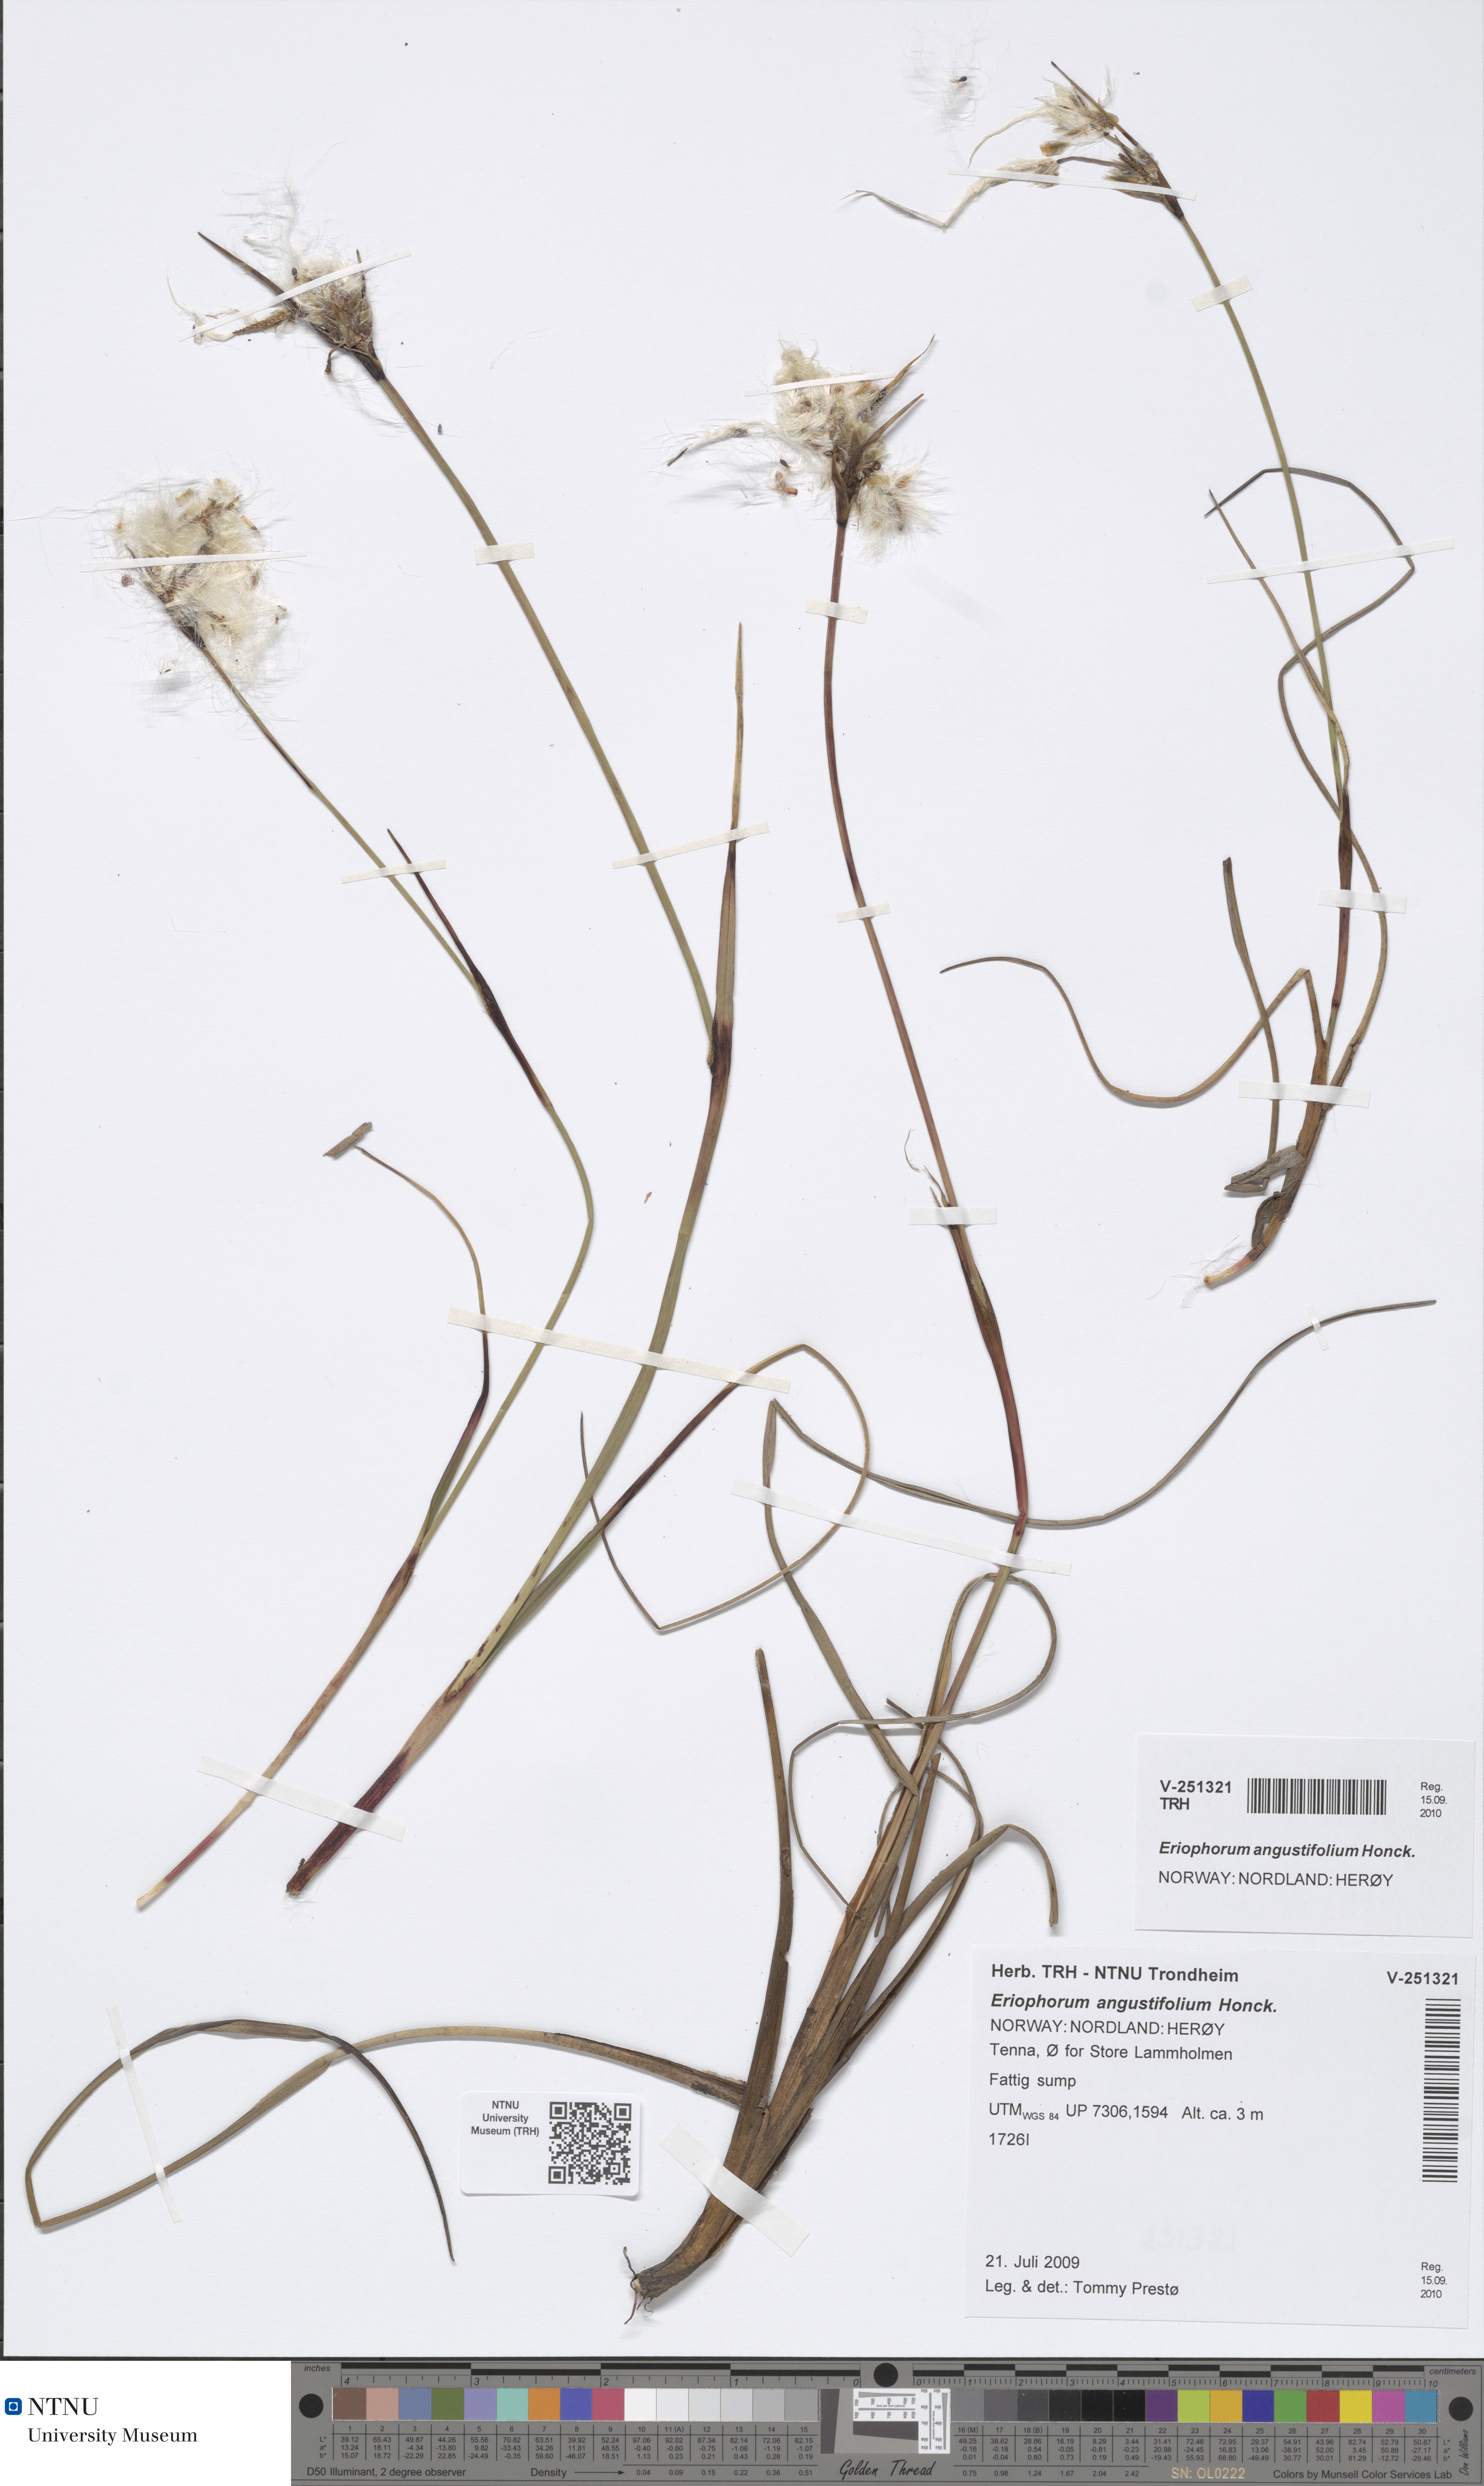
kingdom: Plantae
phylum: Tracheophyta
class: Liliopsida
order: Poales
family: Cyperaceae
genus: Eriophorum
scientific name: Eriophorum angustifolium
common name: Common cottongrass
